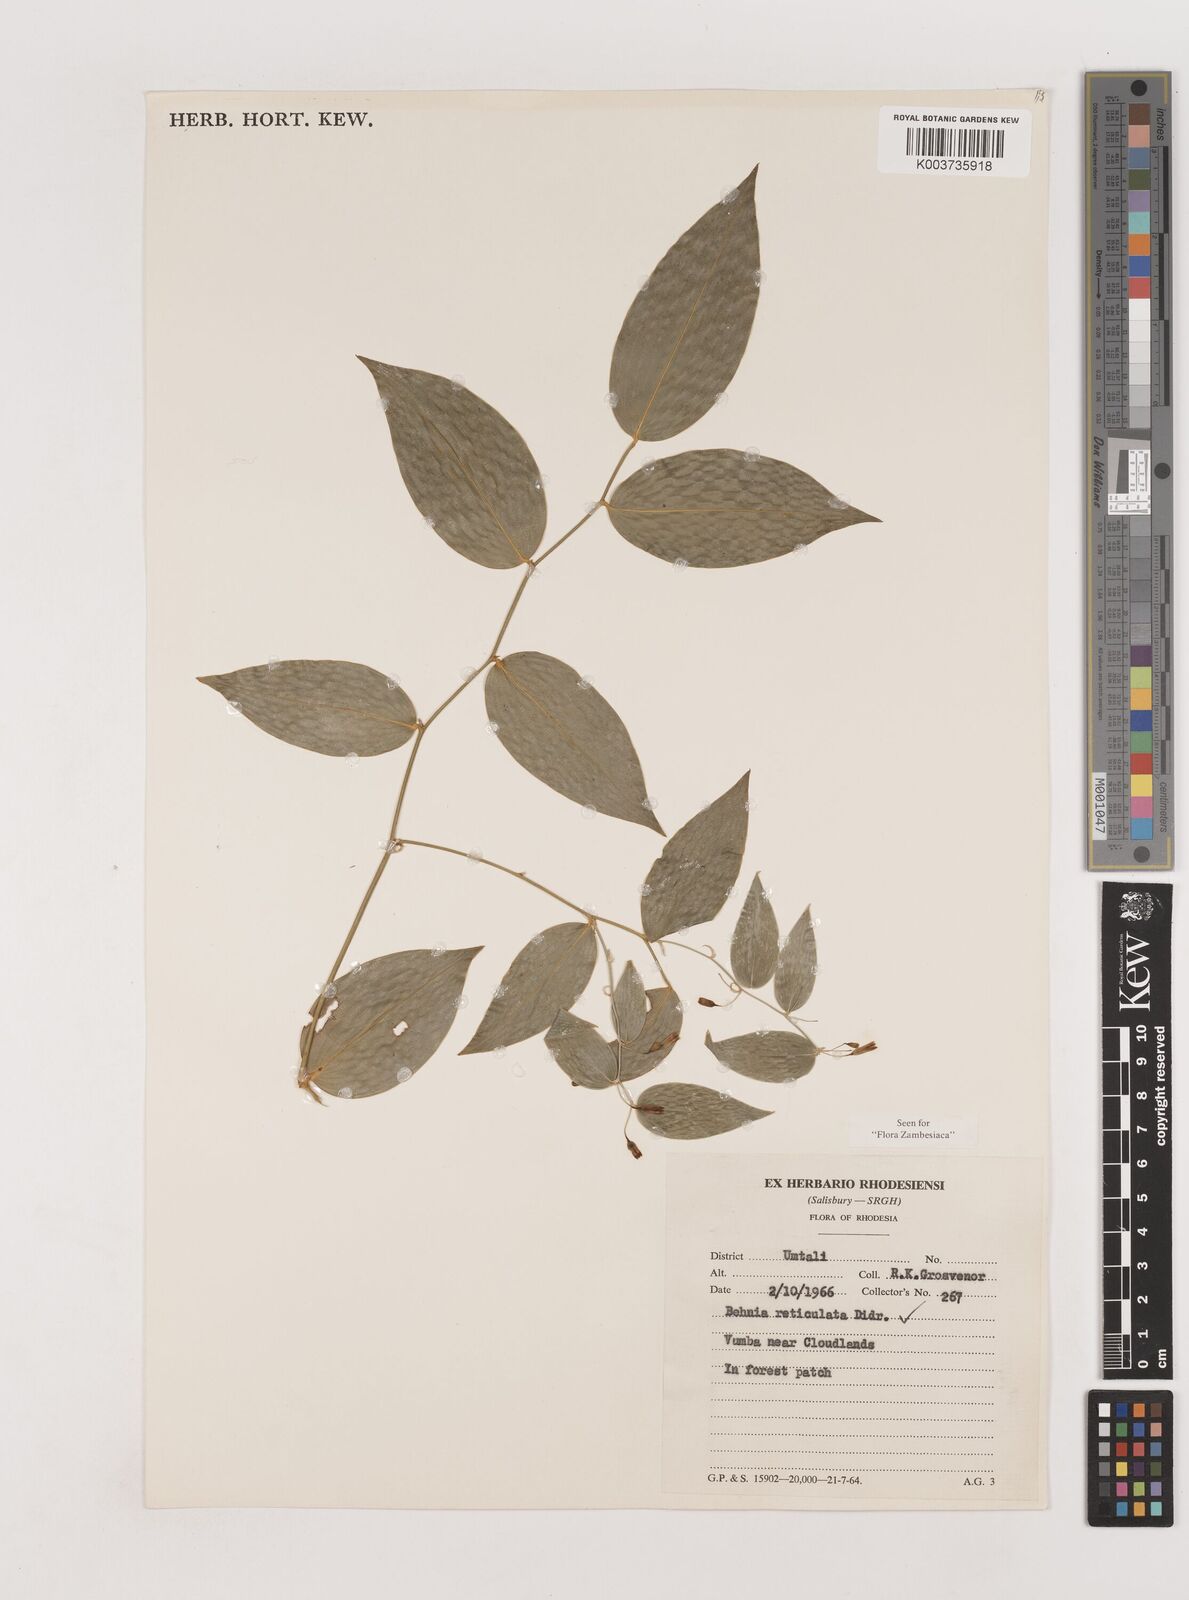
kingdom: Plantae
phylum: Tracheophyta
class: Liliopsida
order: Asparagales
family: Asparagaceae
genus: Behnia
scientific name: Behnia reticulata
